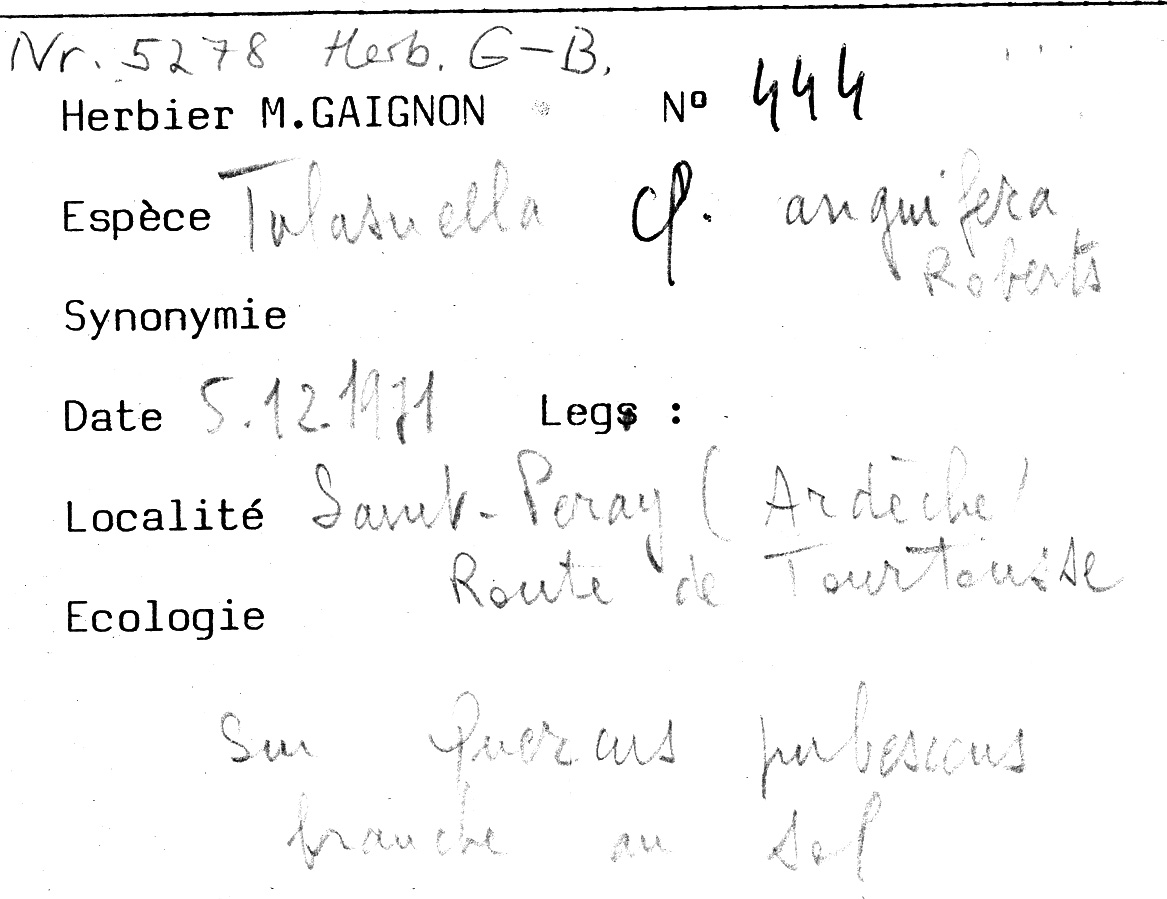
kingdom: Plantae
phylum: Tracheophyta
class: Magnoliopsida
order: Fagales
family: Fagaceae
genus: Quercus
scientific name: Quercus pubescens
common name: Downy oak
